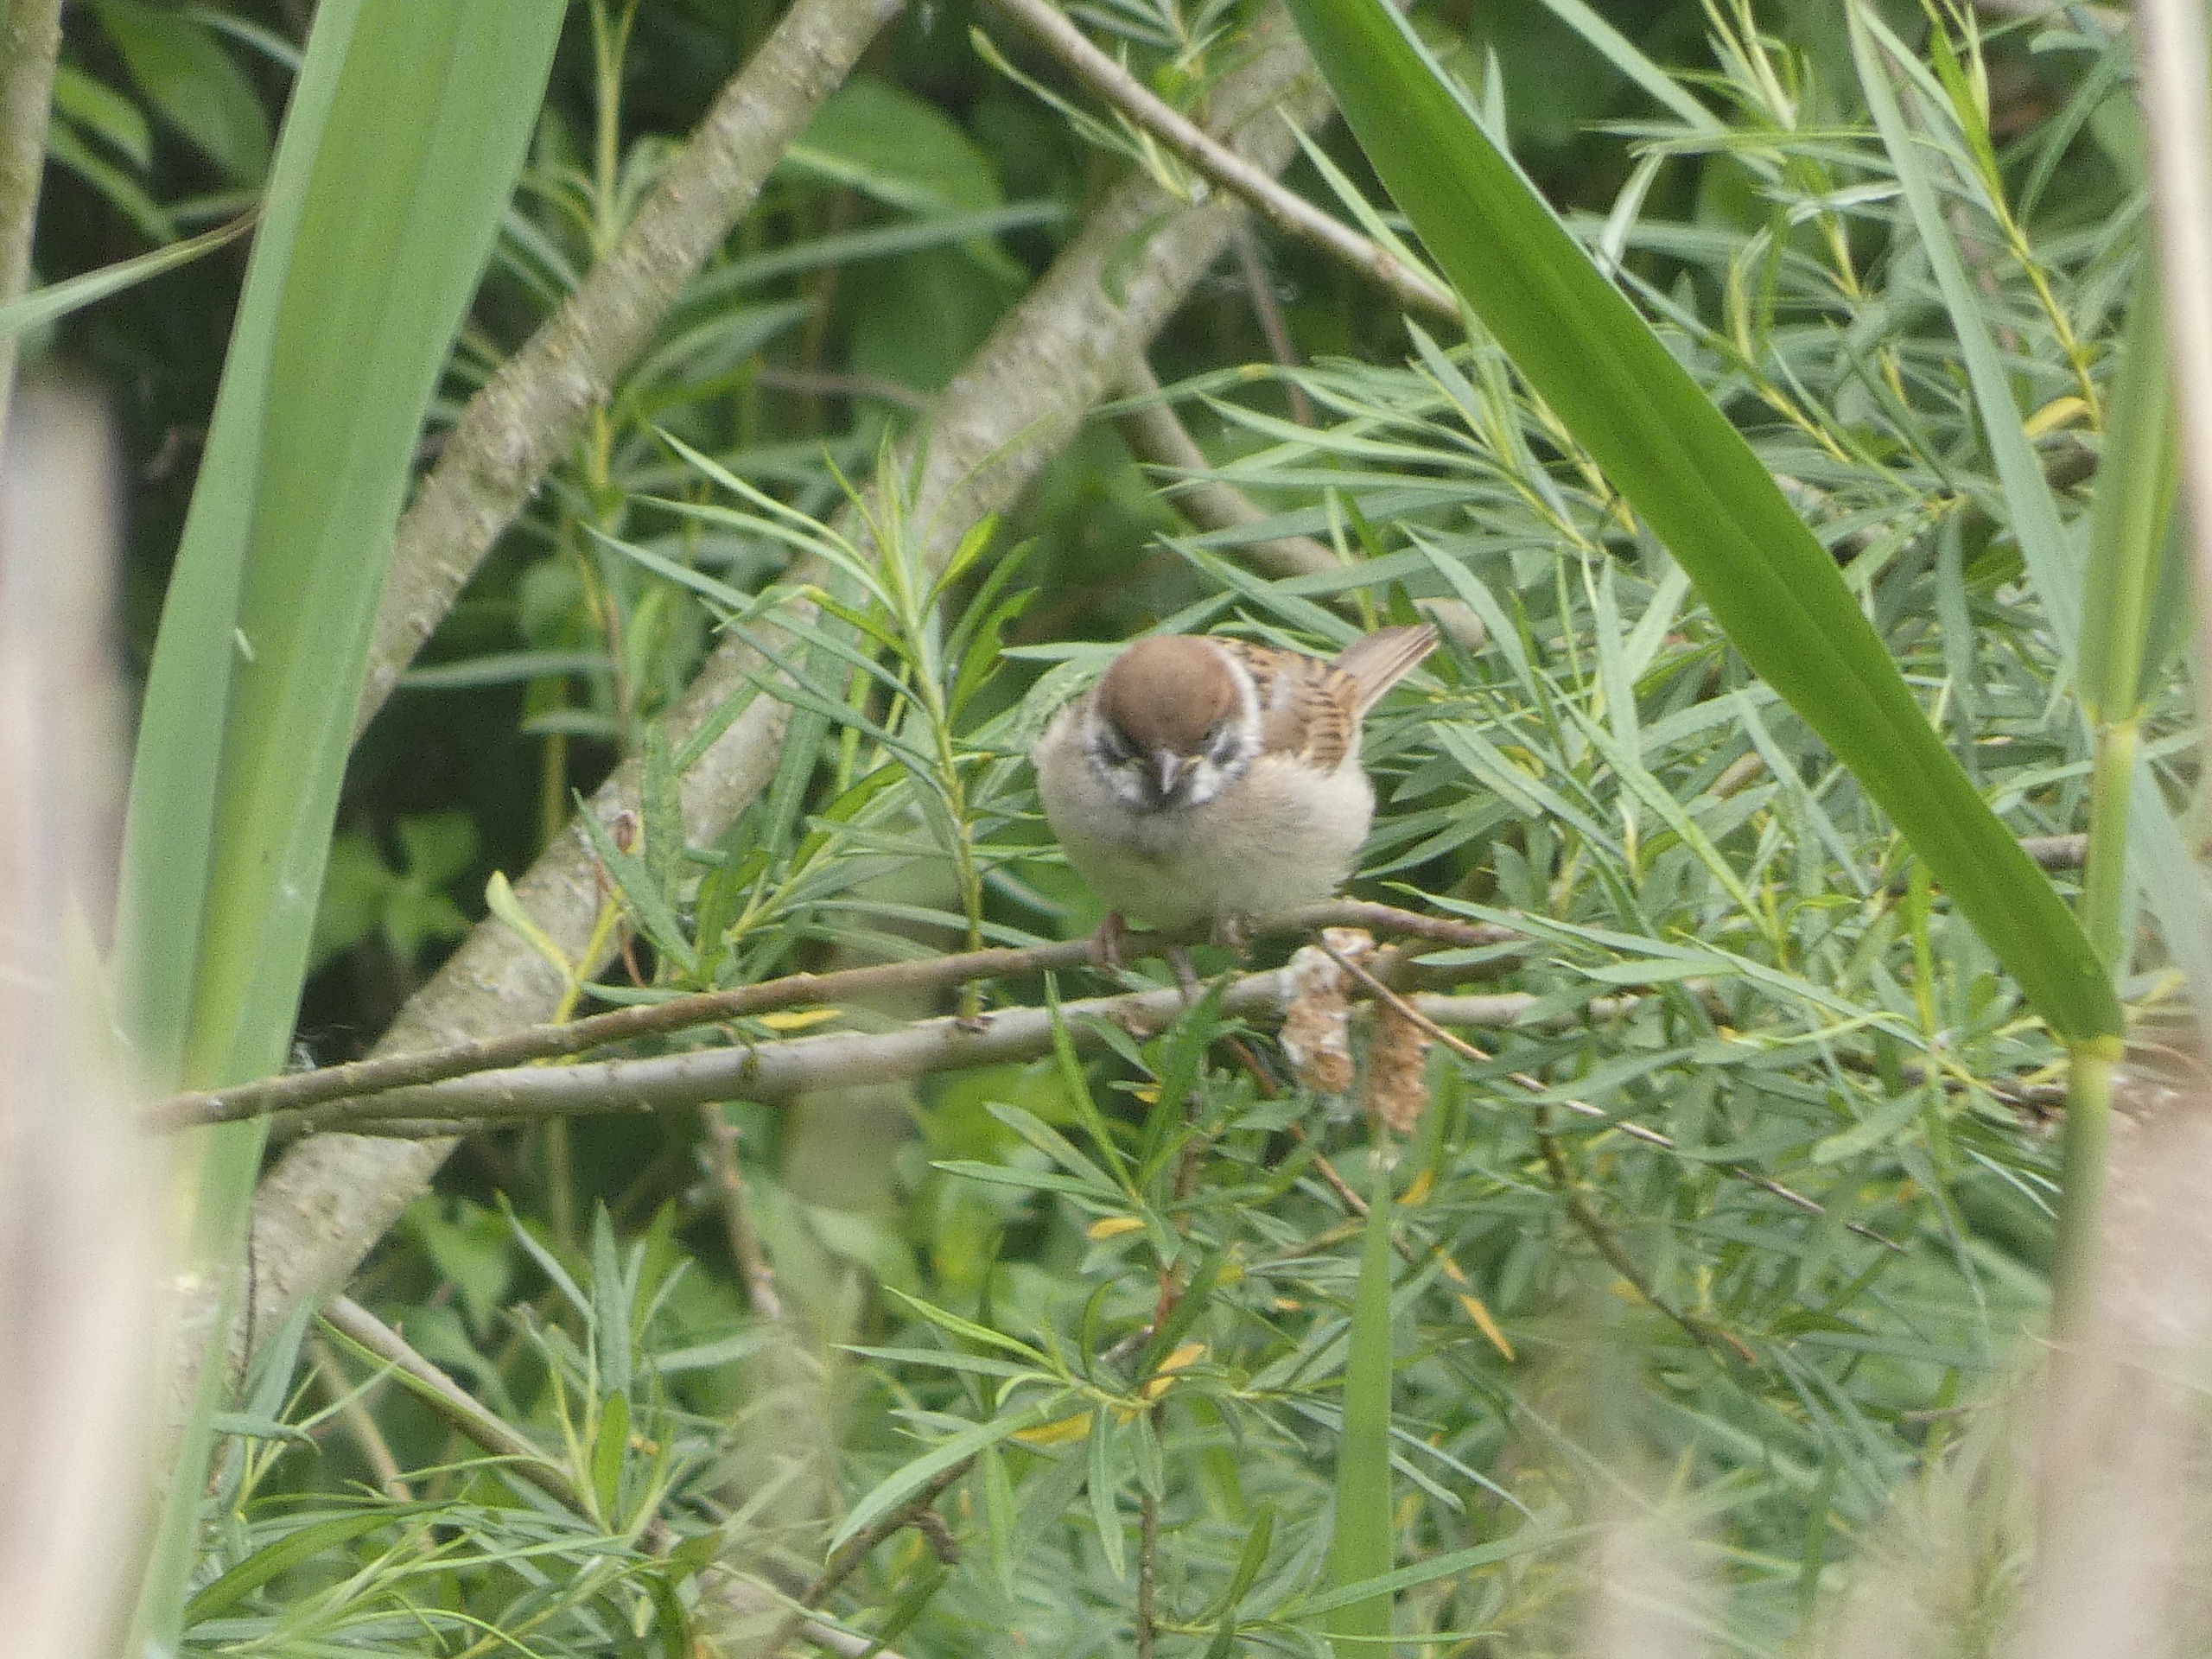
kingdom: Animalia
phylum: Chordata
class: Aves
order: Passeriformes
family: Passeridae
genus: Passer
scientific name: Passer montanus
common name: Skovspurv
